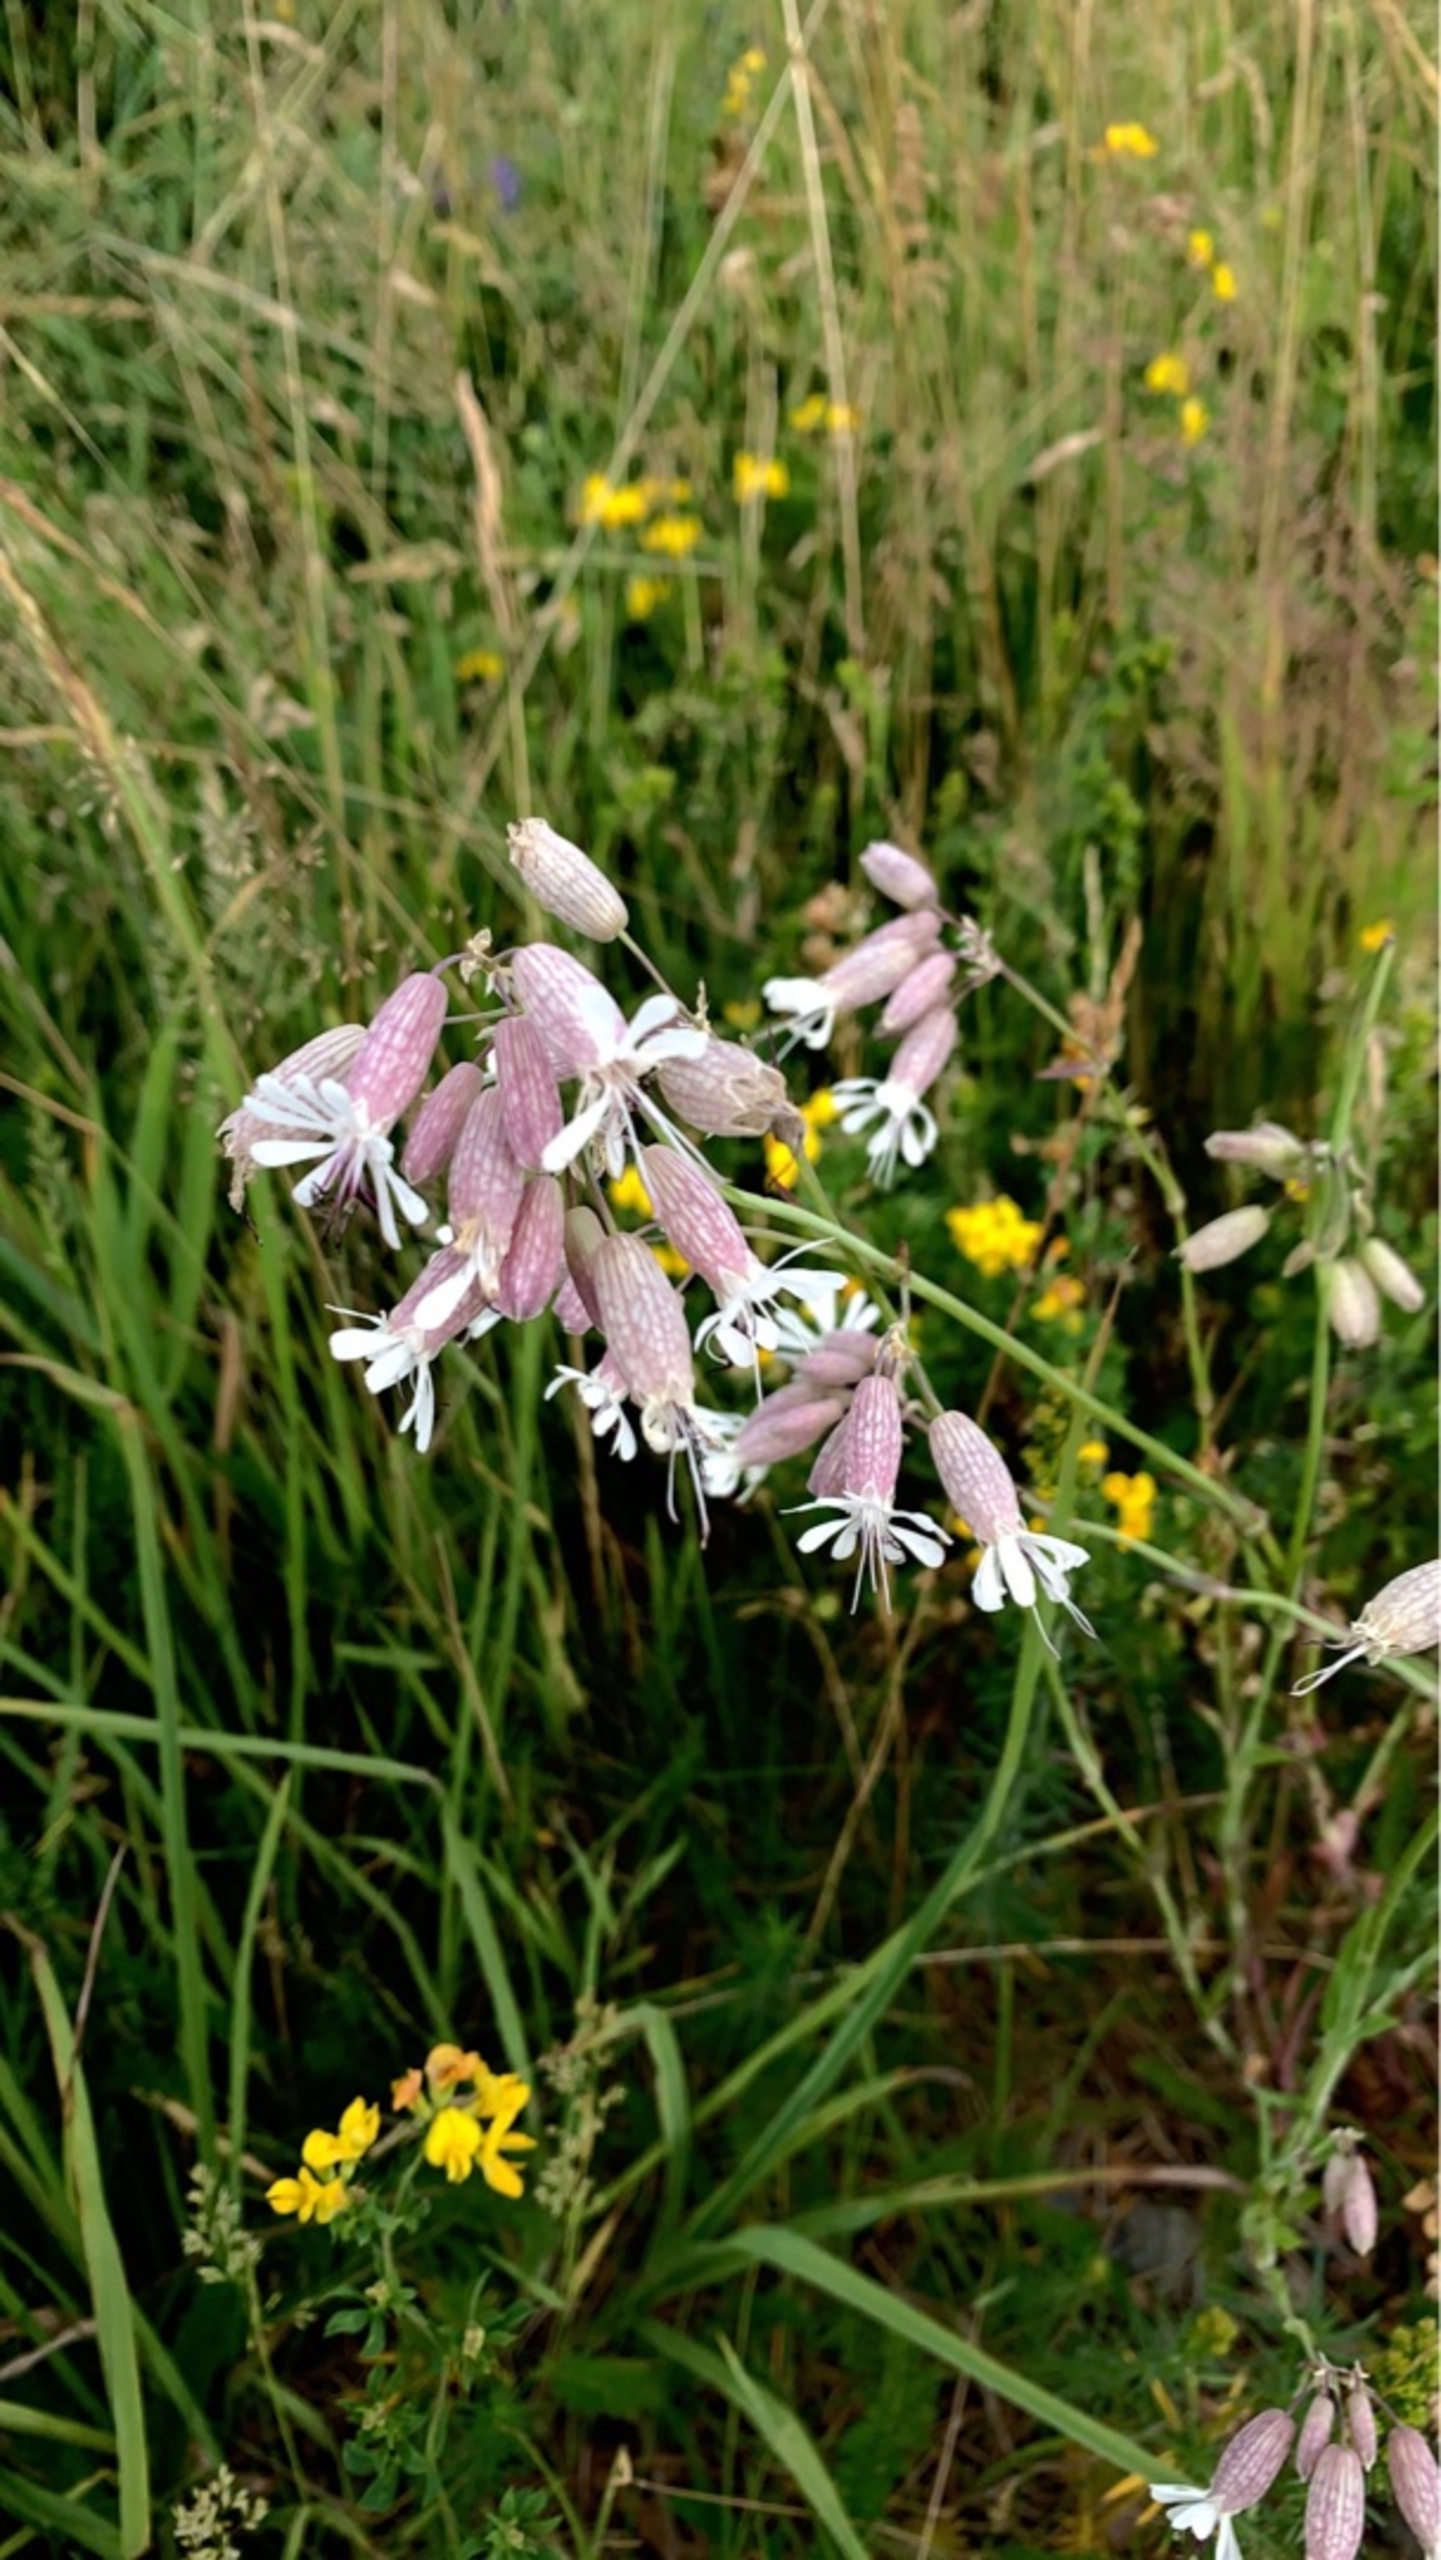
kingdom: Plantae
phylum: Tracheophyta
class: Magnoliopsida
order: Caryophyllales
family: Caryophyllaceae
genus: Silene
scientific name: Silene vulgaris
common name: Blæresmælde
